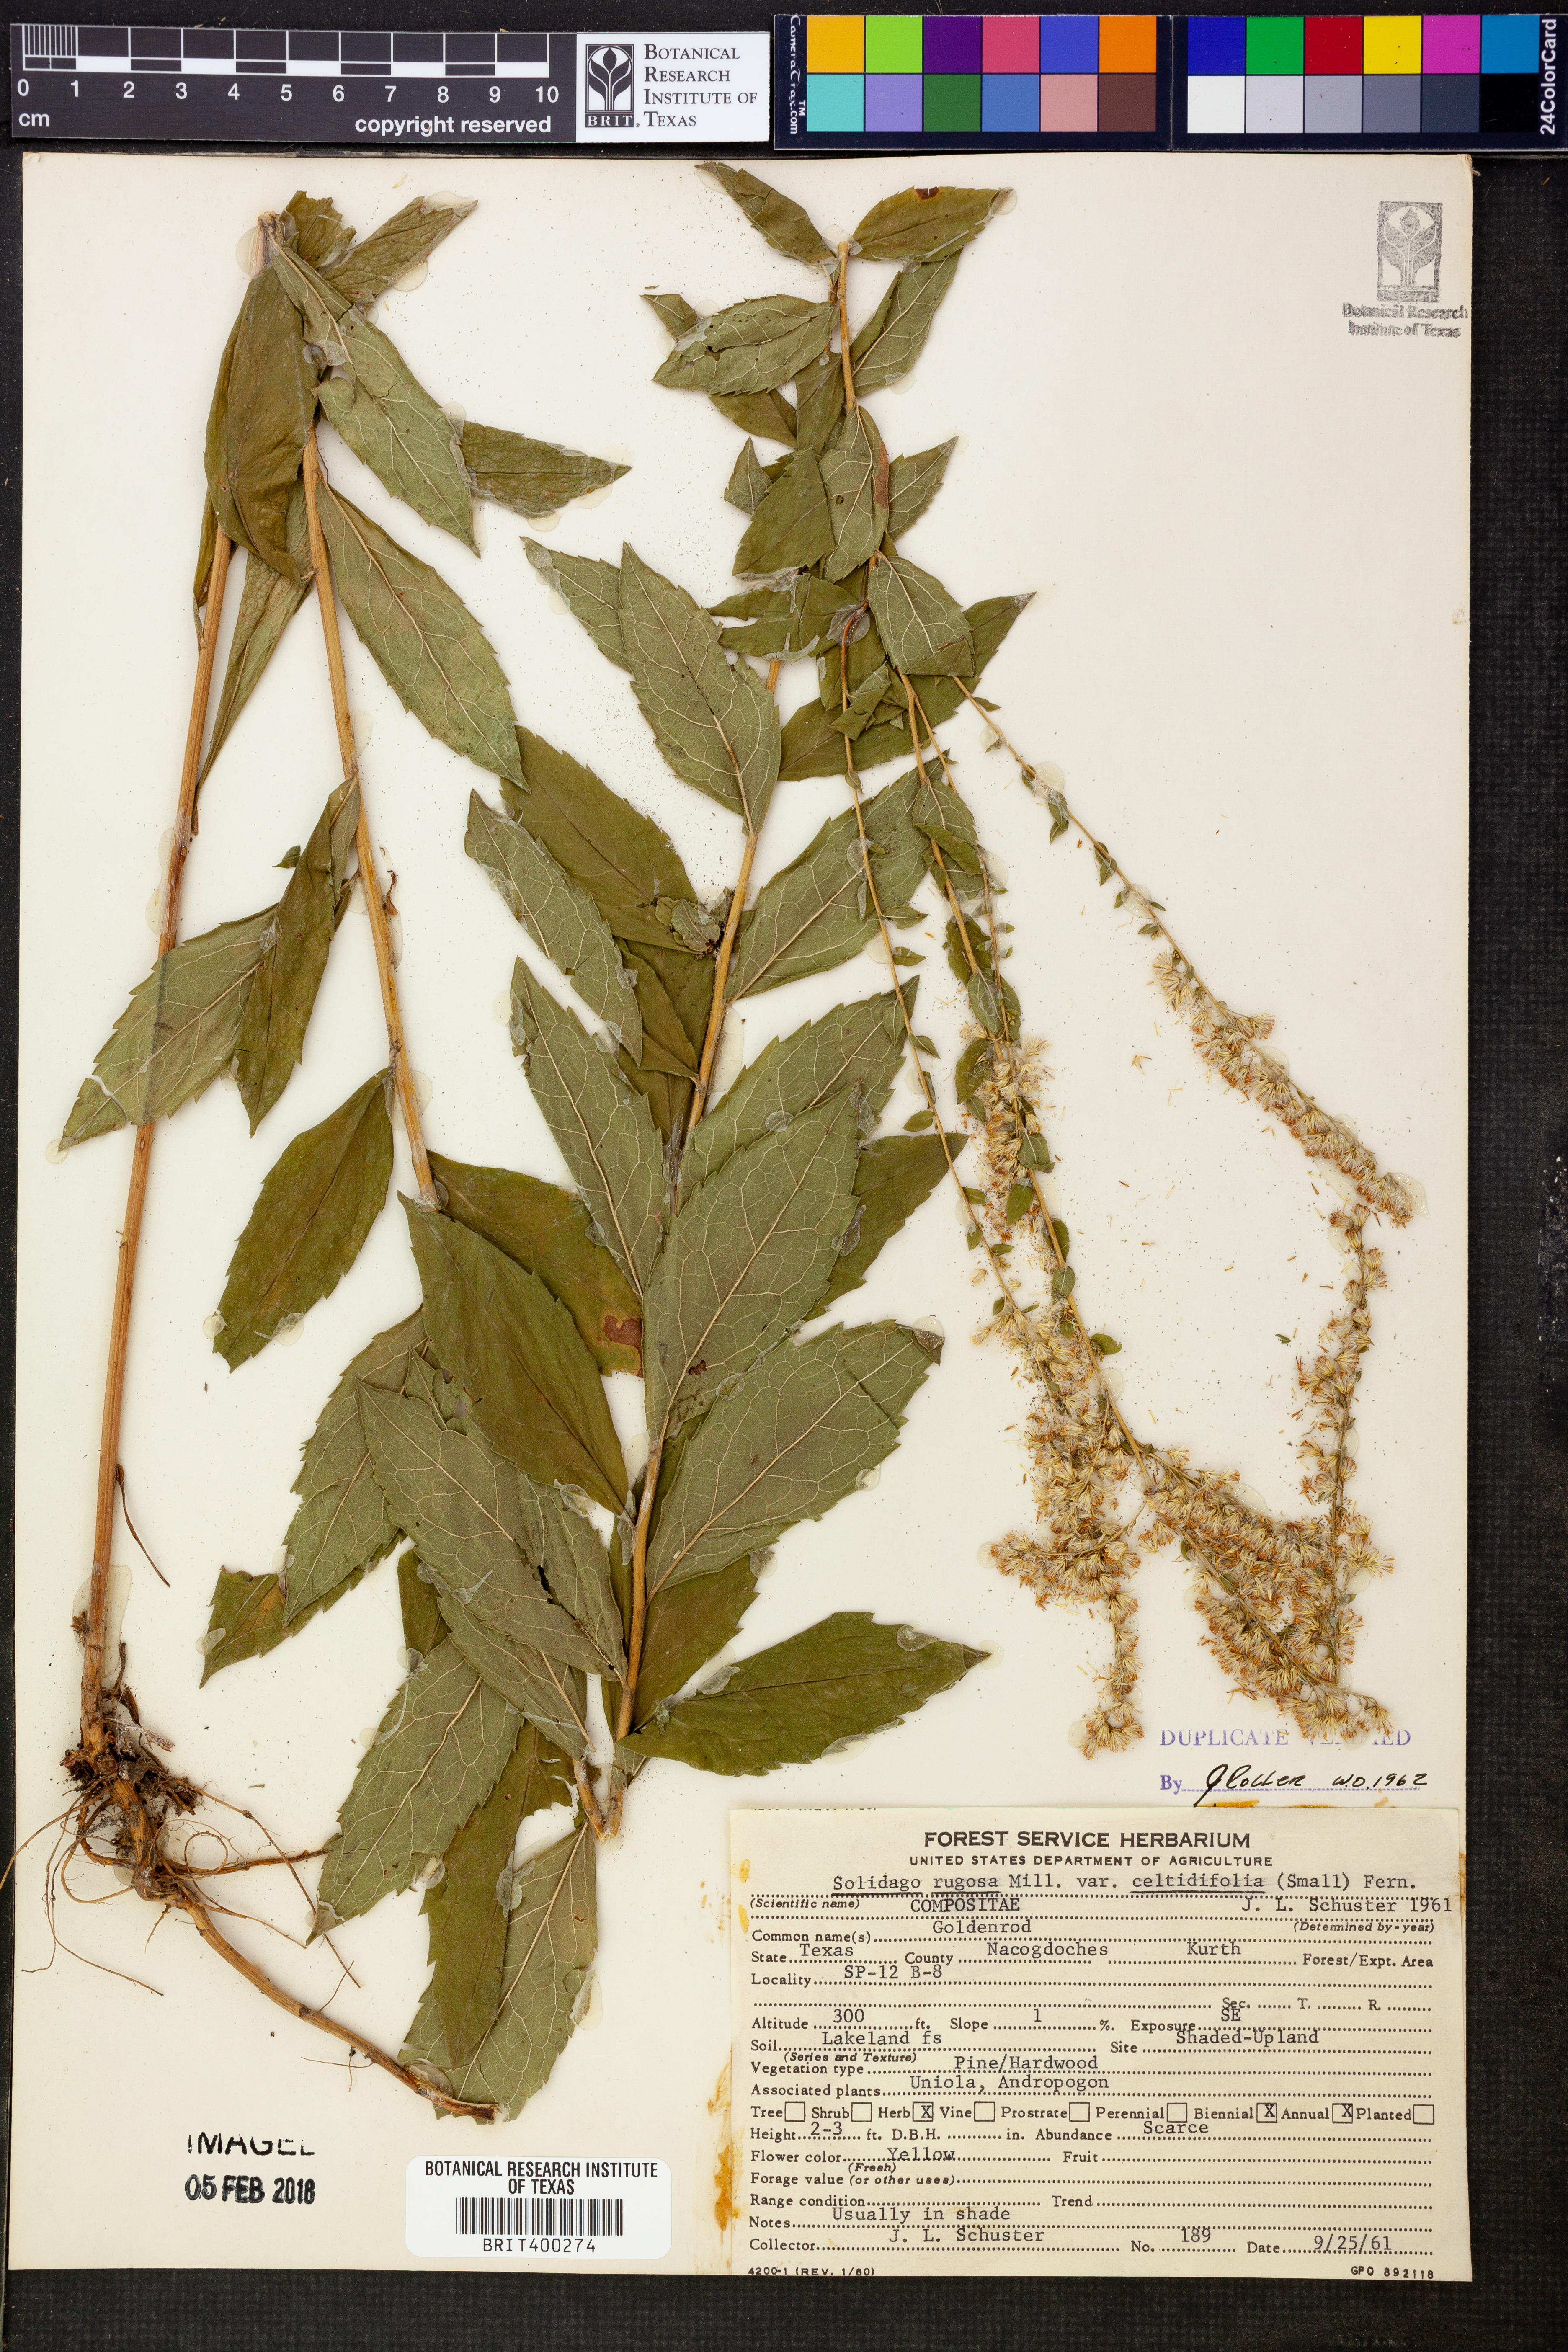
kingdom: Plantae
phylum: Tracheophyta
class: Magnoliopsida
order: Asterales
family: Asteraceae
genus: Solidago
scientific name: Solidago rugosa
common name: Rough-stemmed goldenrod
